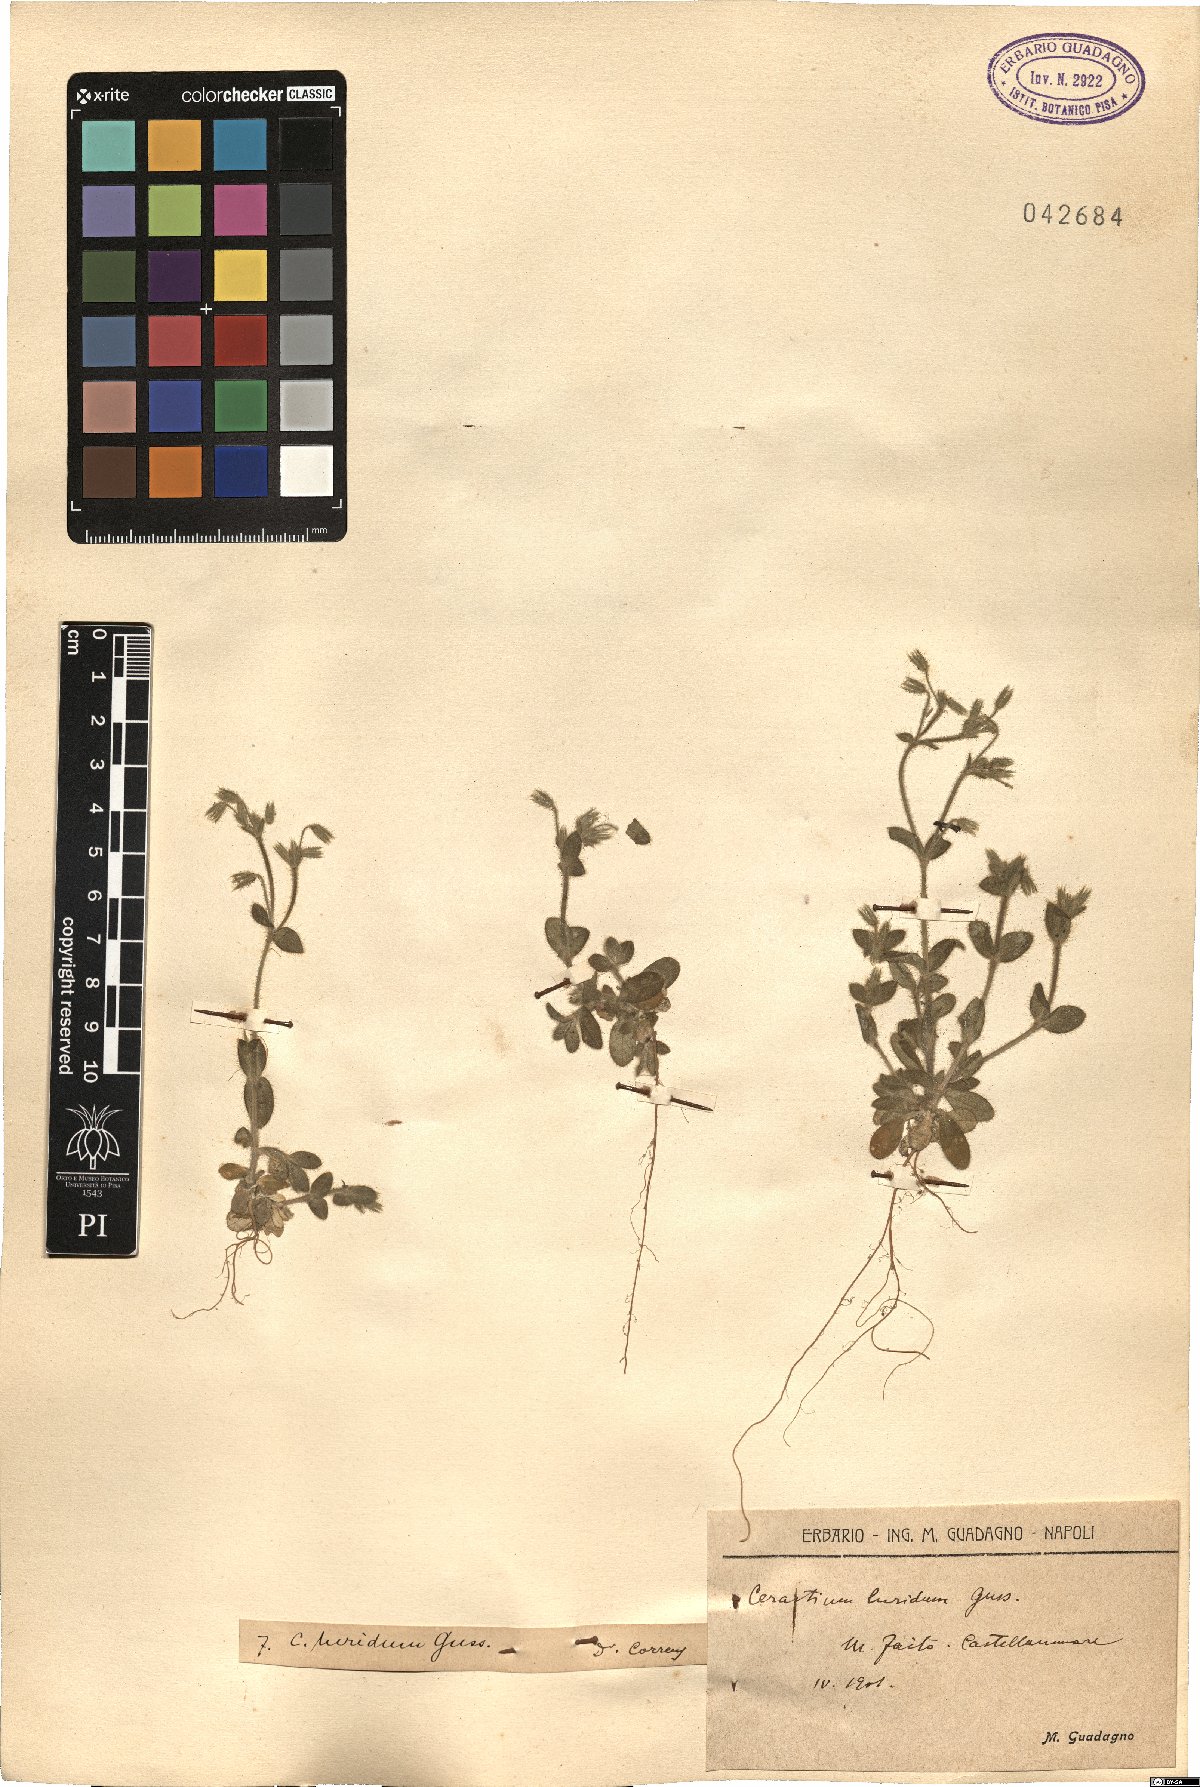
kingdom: Plantae
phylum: Tracheophyta
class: Magnoliopsida
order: Caryophyllales
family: Caryophyllaceae
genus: Cerastium
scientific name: Cerastium brachypetalum
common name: Grey mouse-ear
